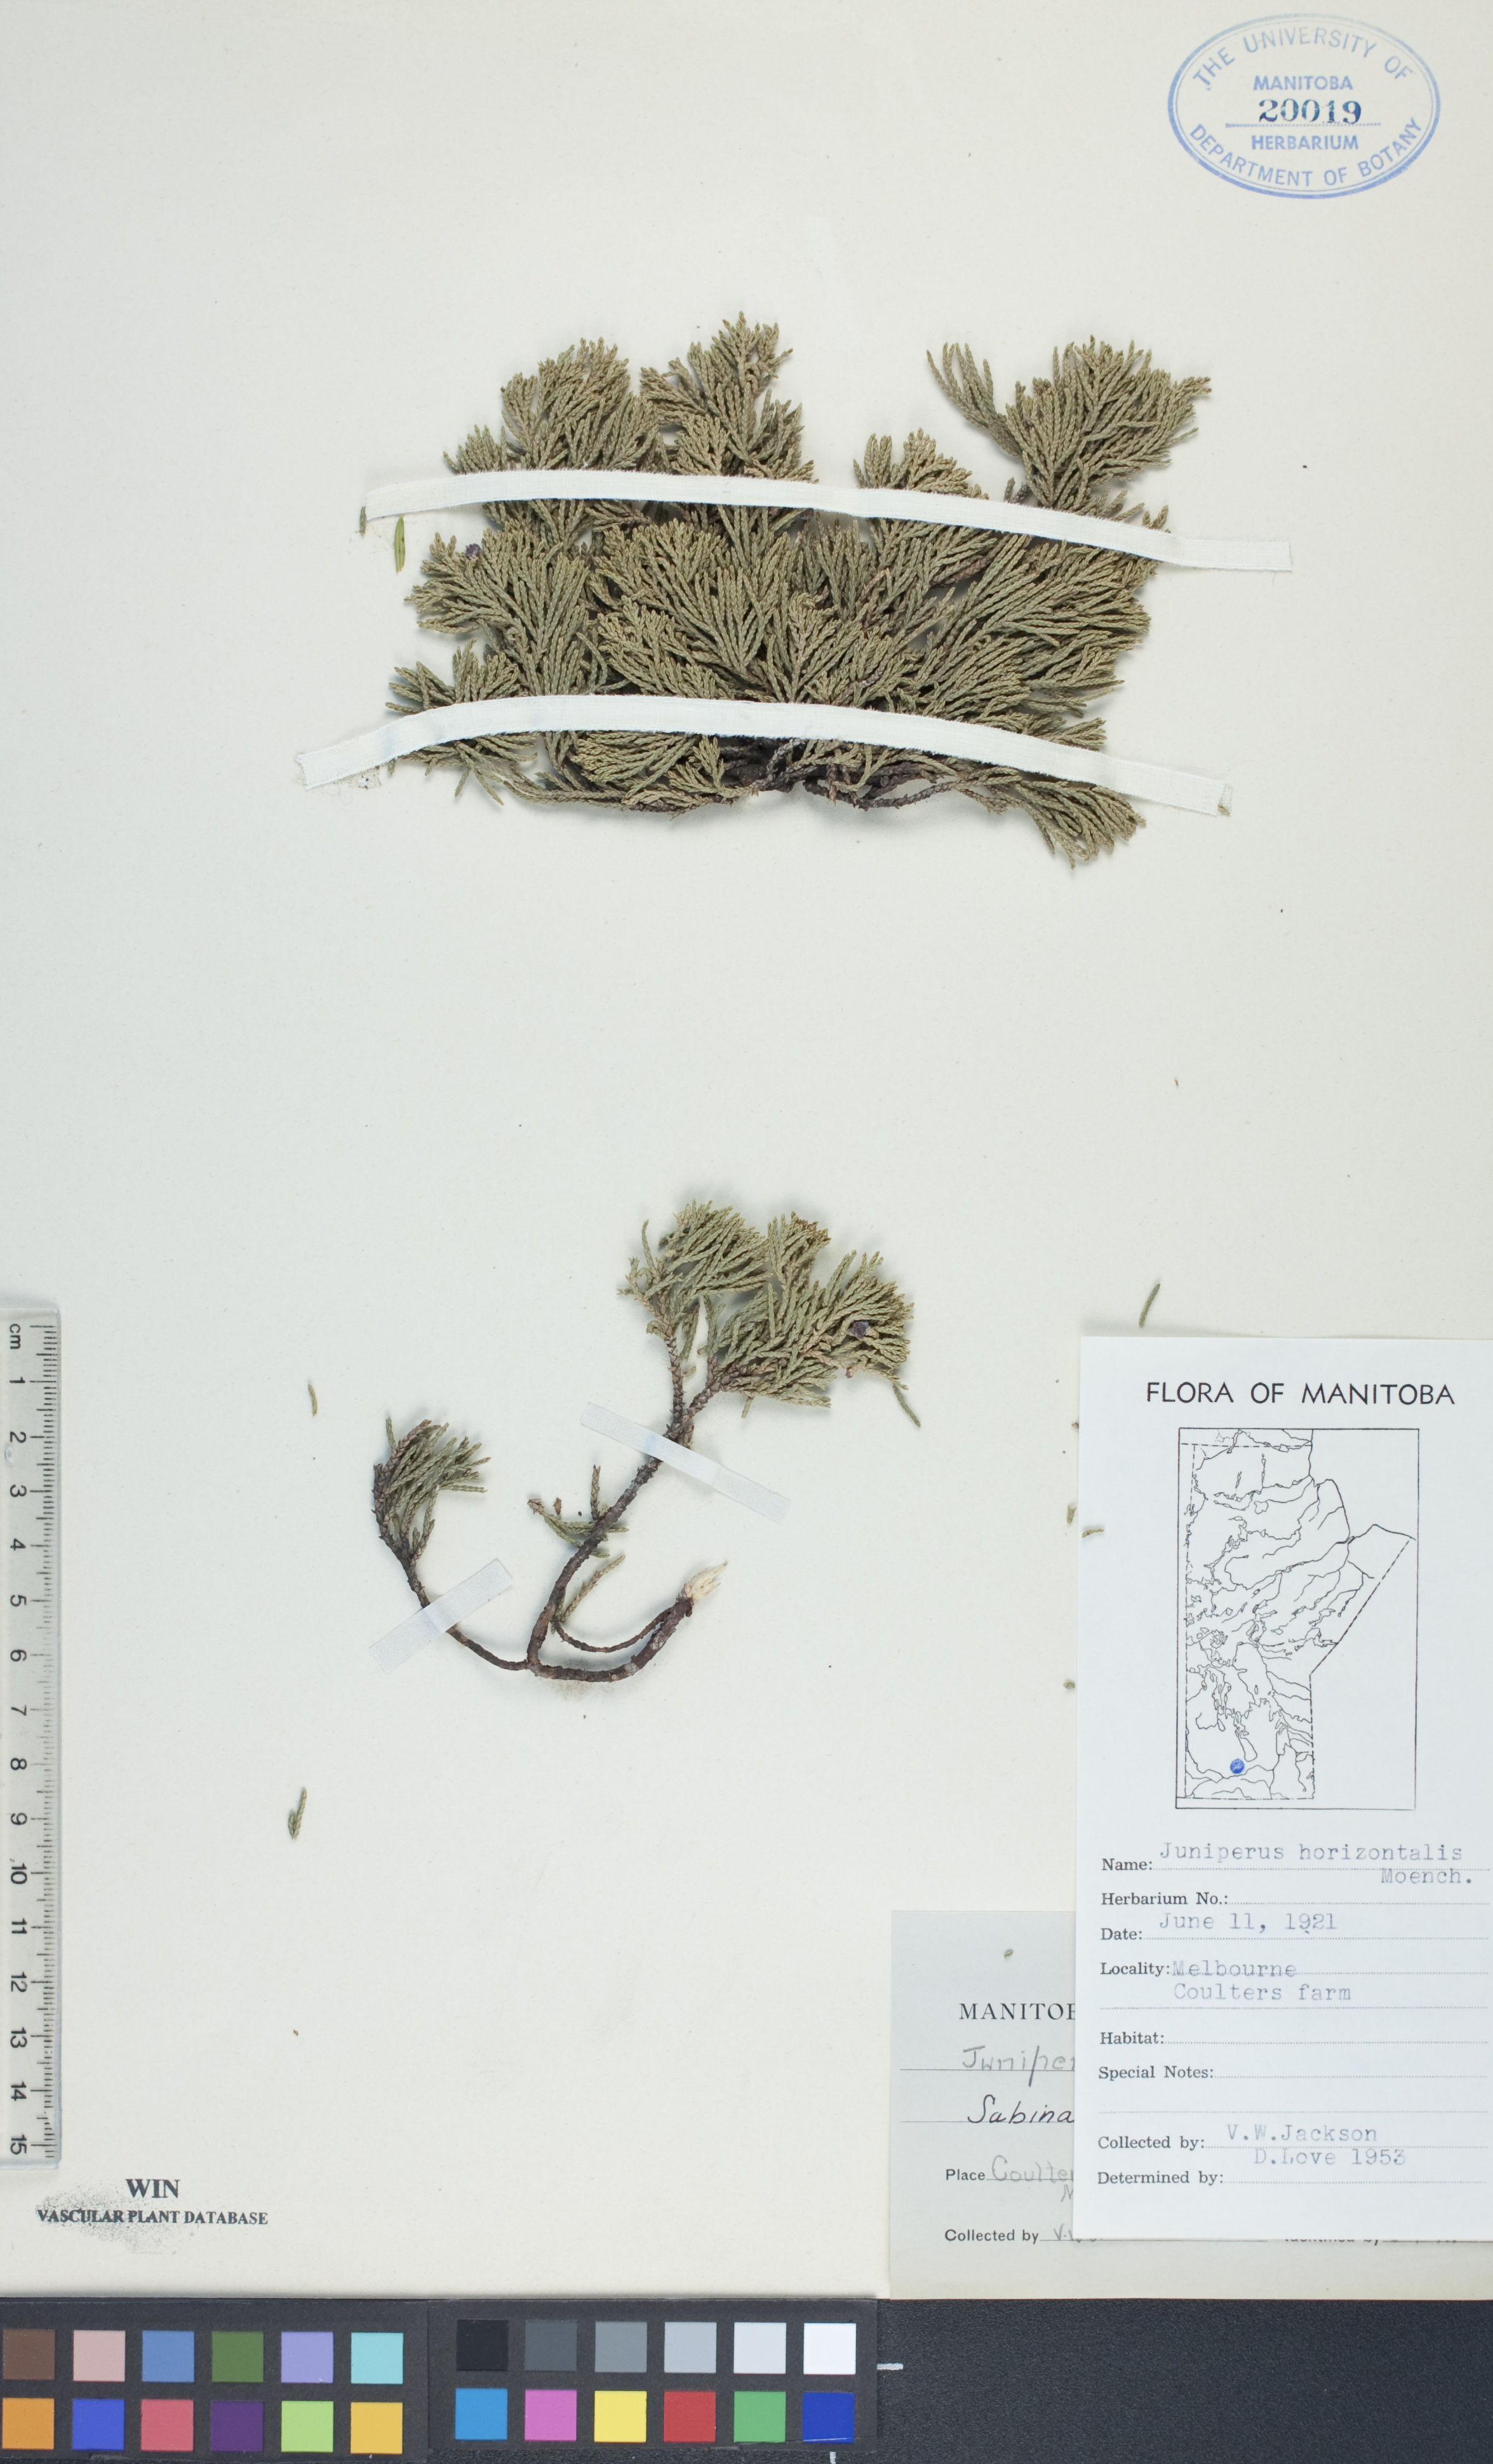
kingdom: Plantae
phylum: Tracheophyta
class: Pinopsida
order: Pinales
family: Cupressaceae
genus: Juniperus
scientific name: Juniperus horizontalis
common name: Creeping juniper
